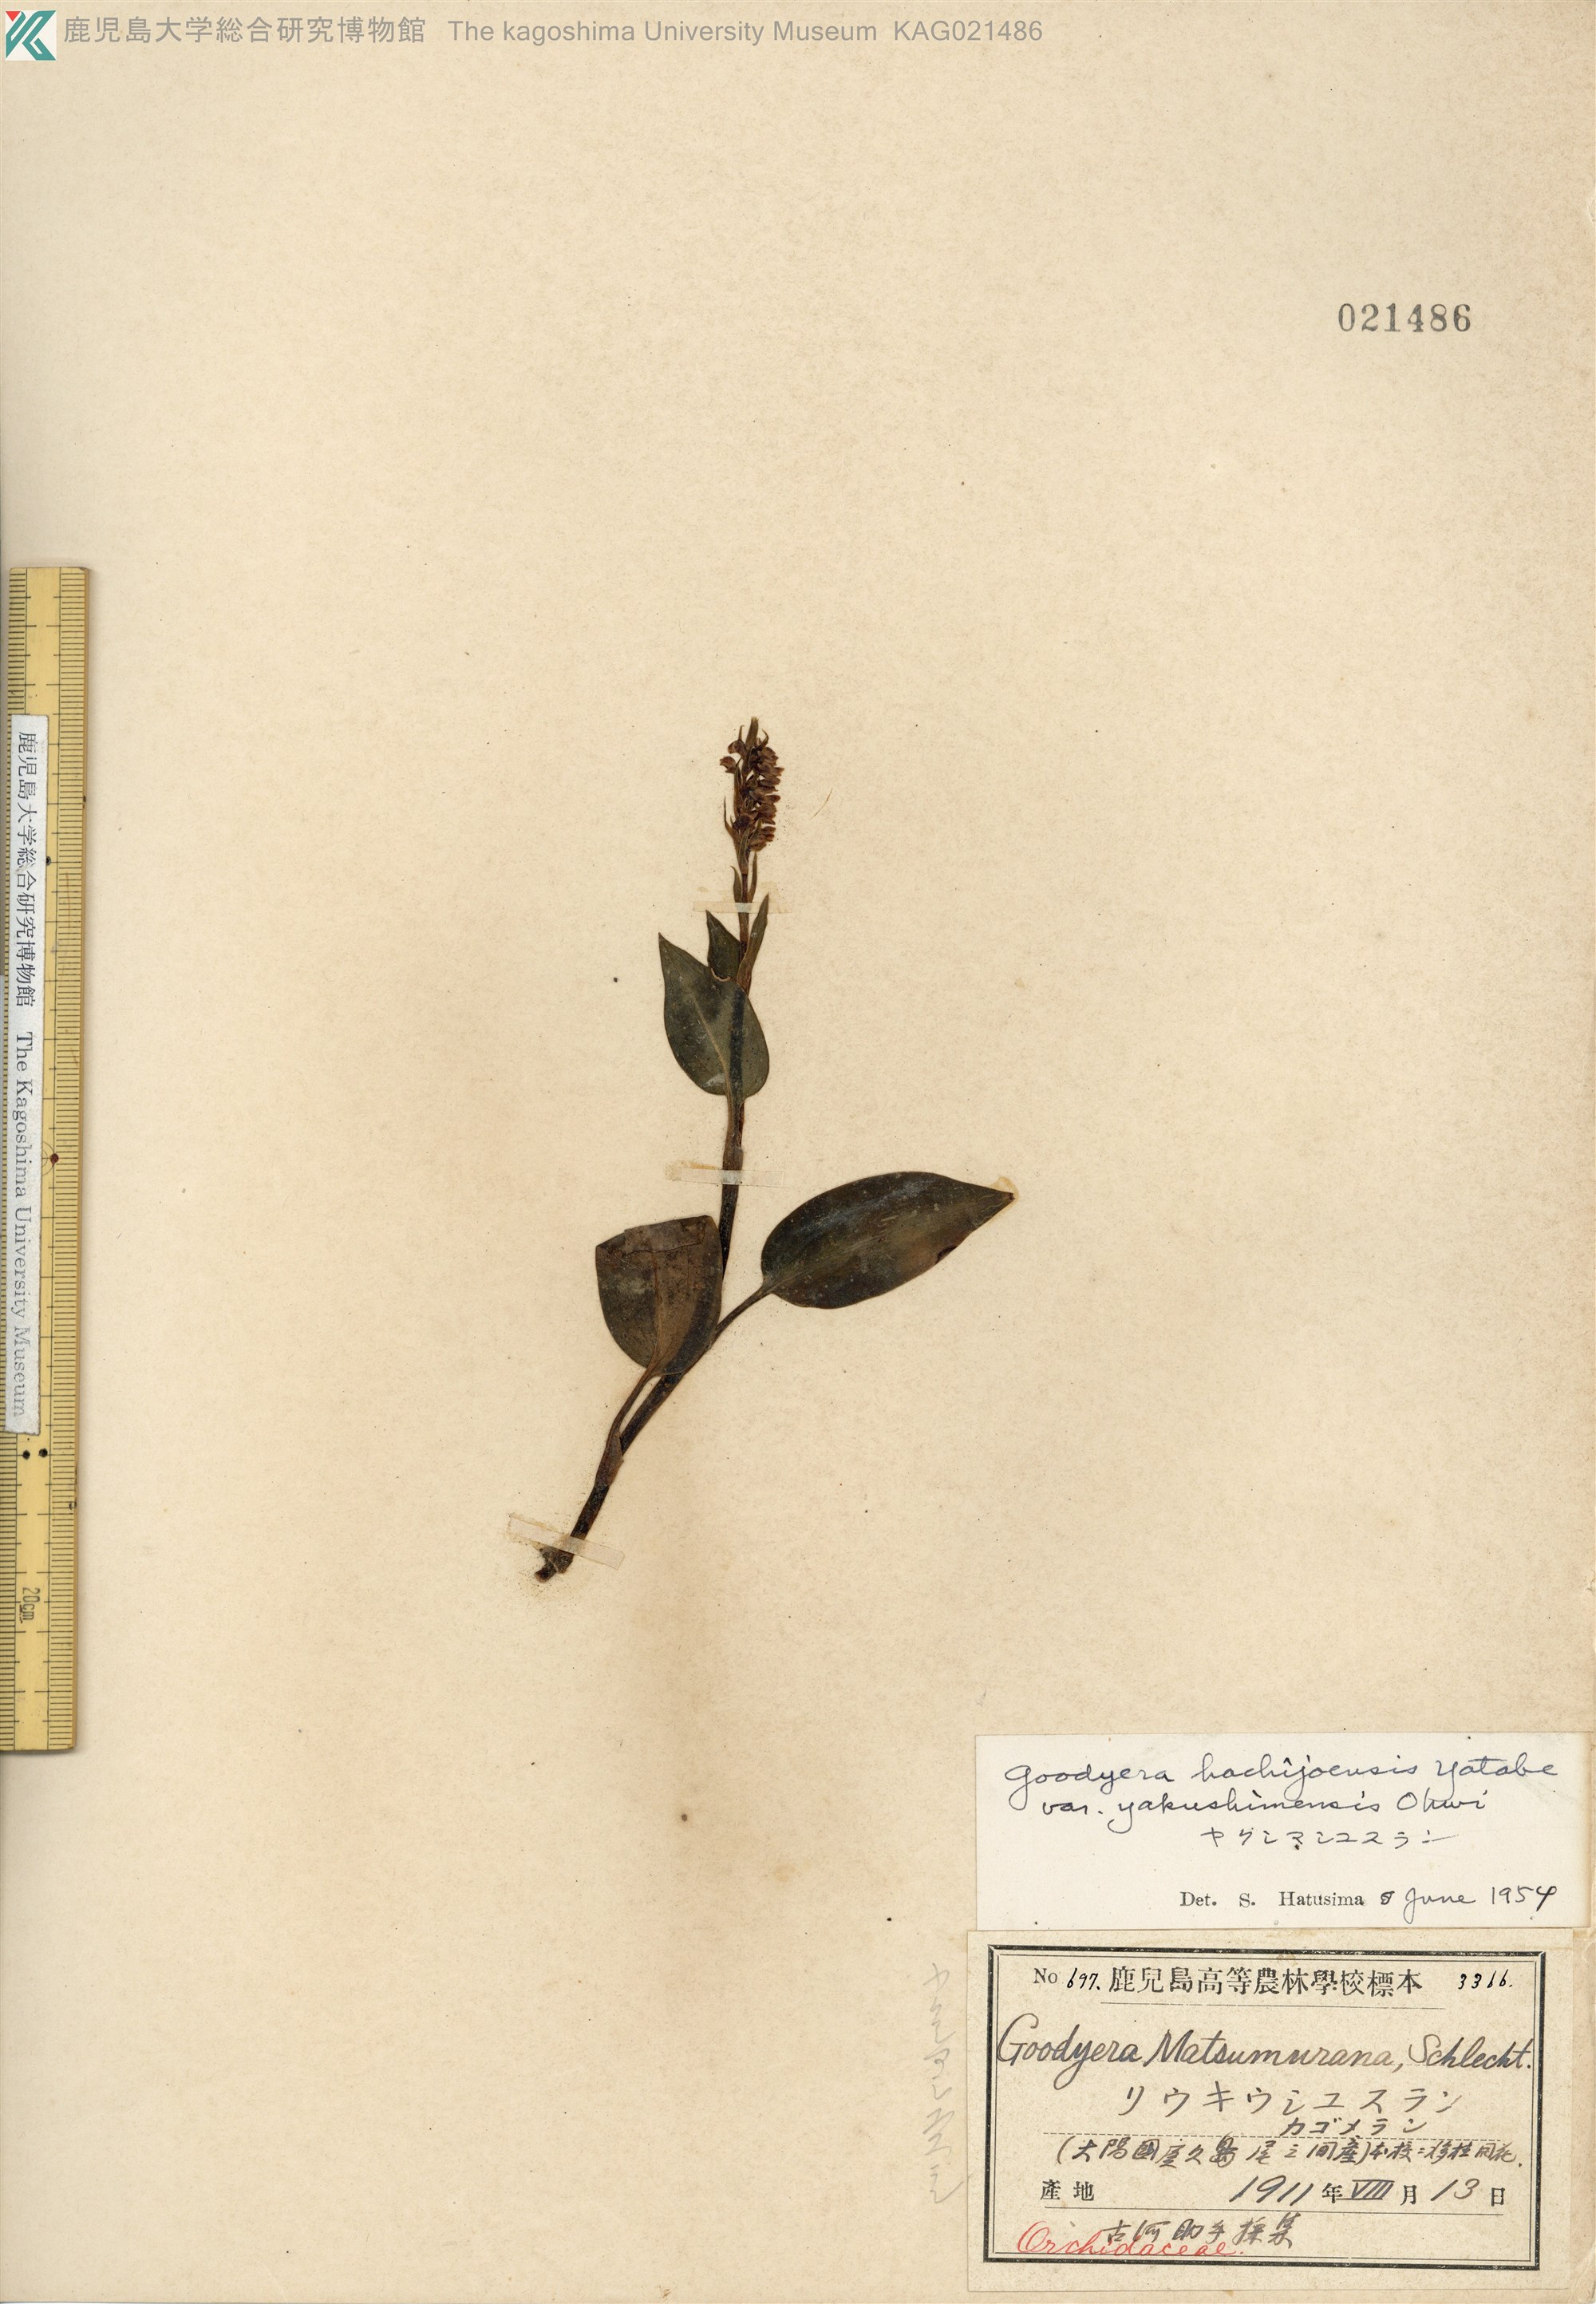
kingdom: Plantae
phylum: Tracheophyta
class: Liliopsida
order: Asparagales
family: Orchidaceae
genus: Goodyera
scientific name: Goodyera hachijoensis
